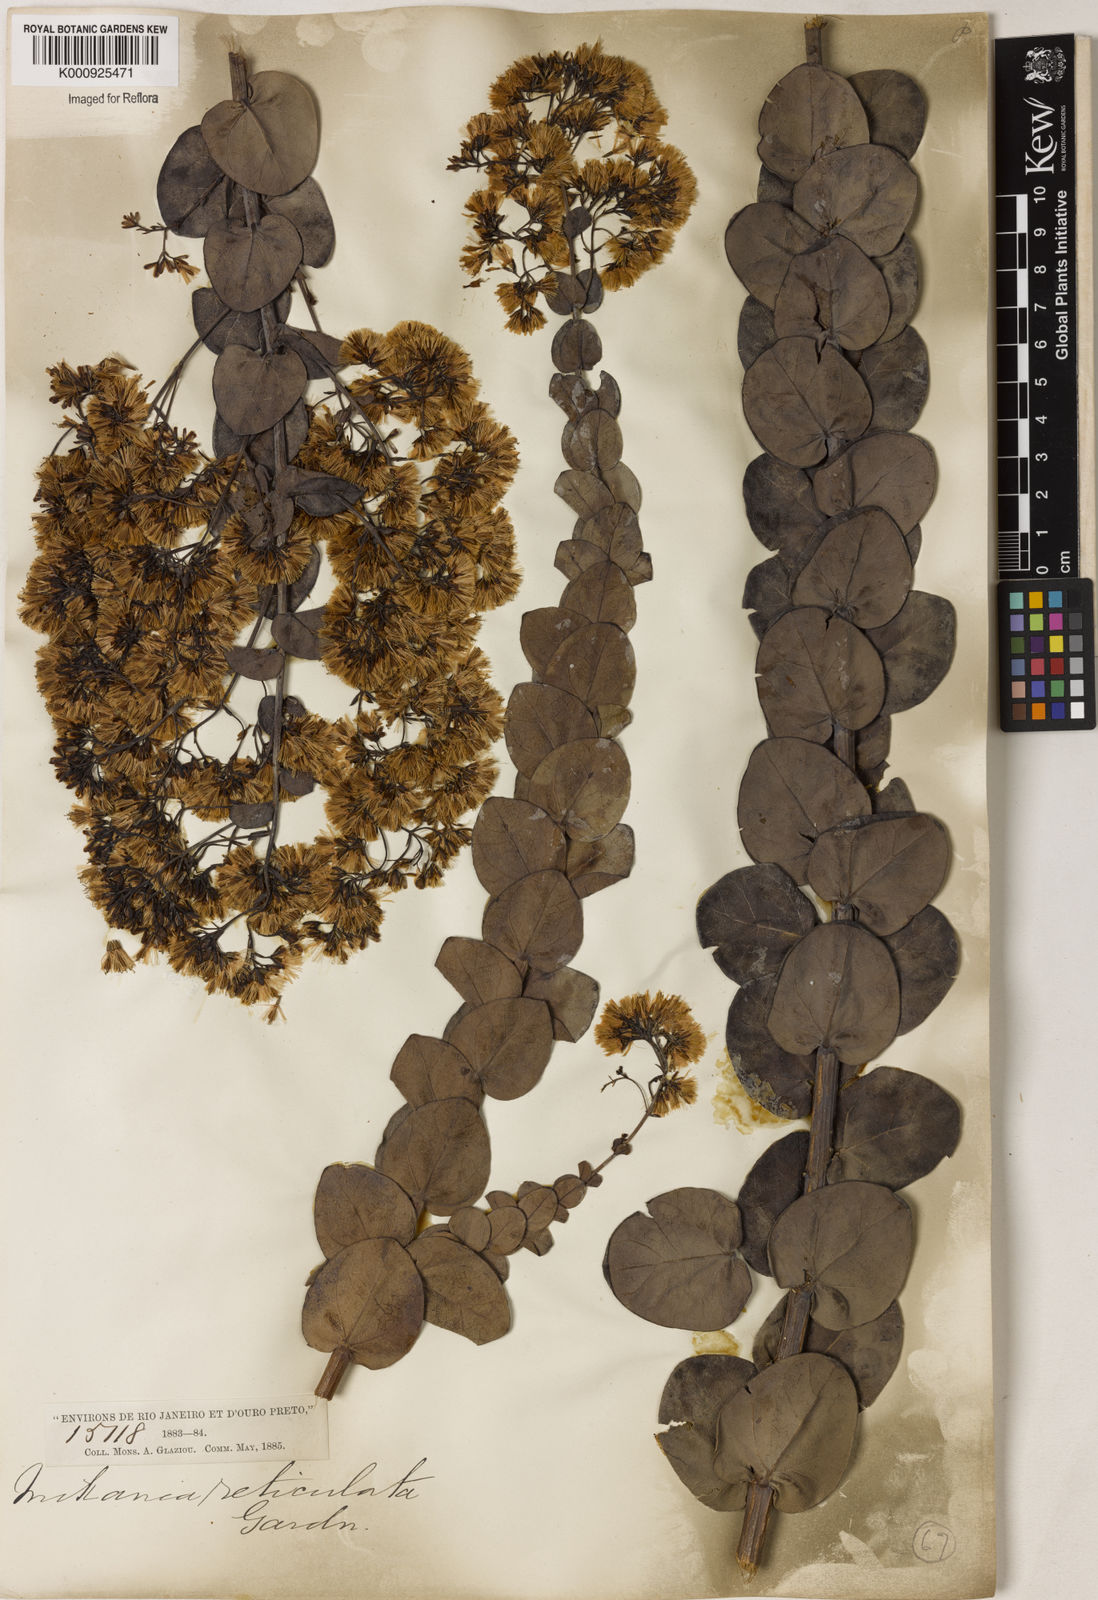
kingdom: Plantae
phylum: Tracheophyta
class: Magnoliopsida
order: Asterales
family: Asteraceae
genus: Mikania
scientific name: Mikania
